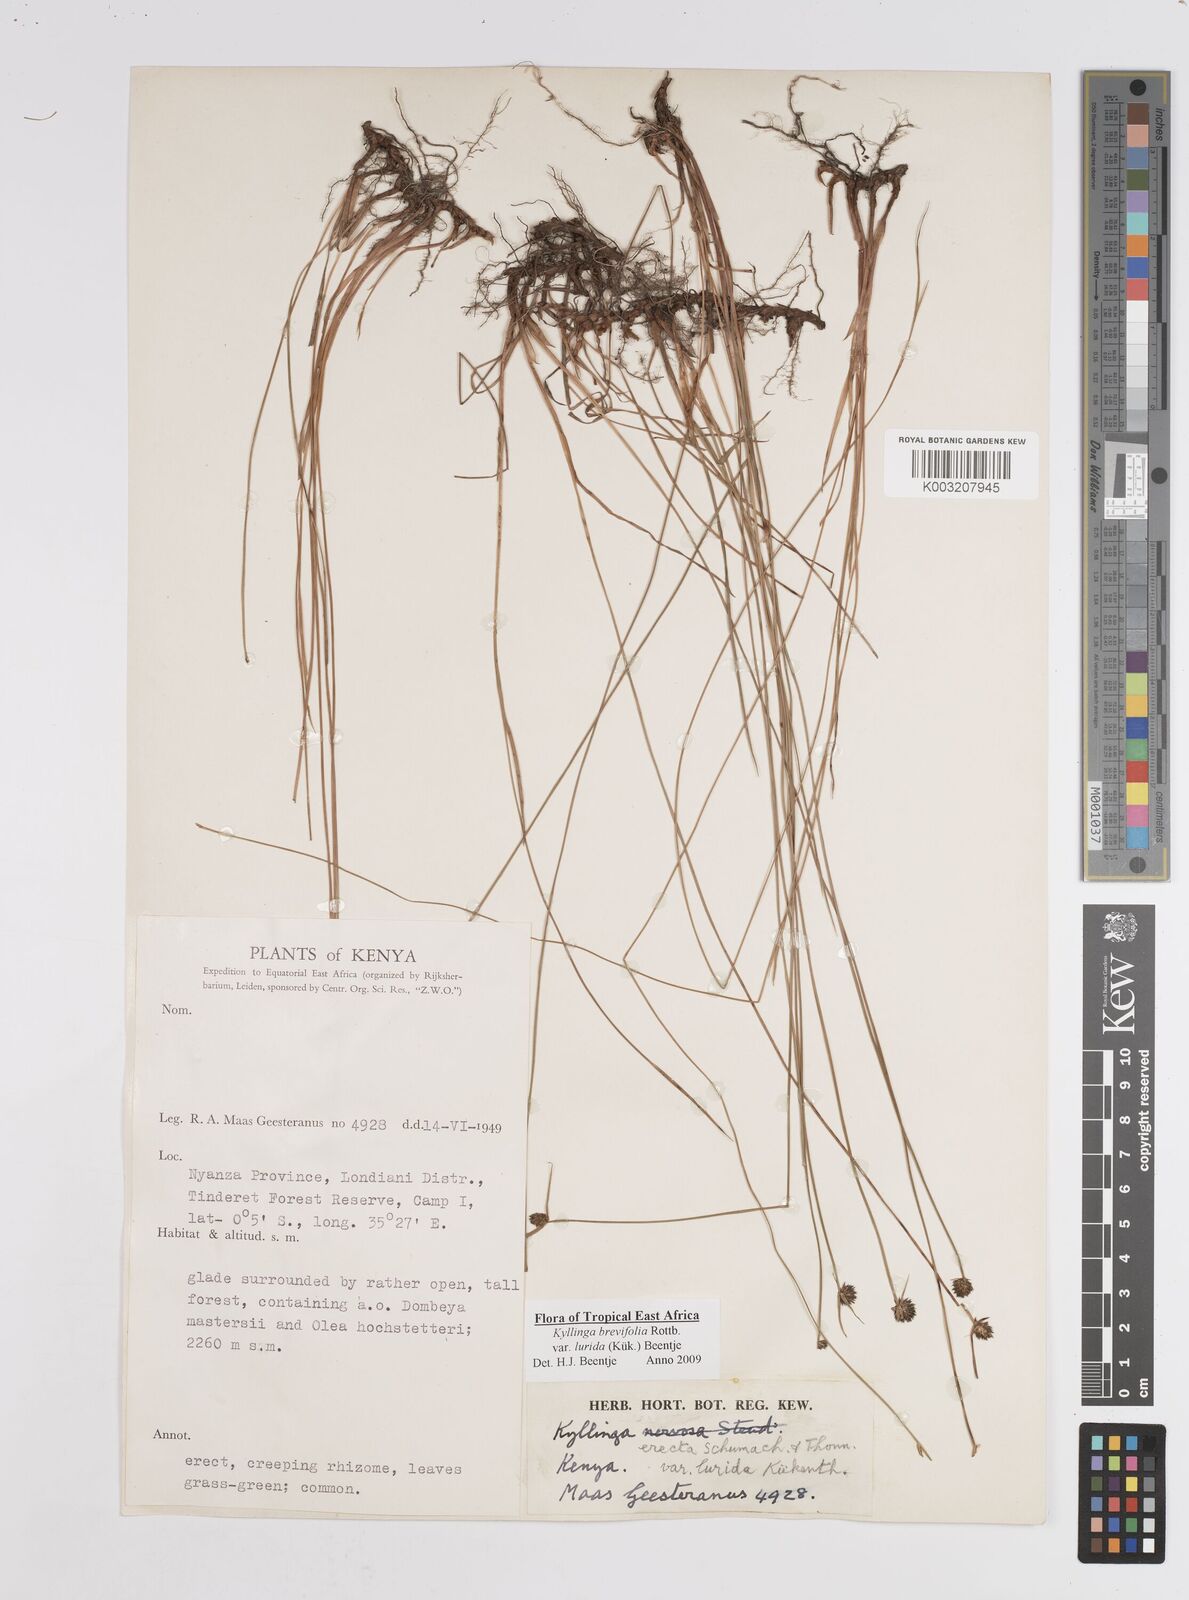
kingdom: Plantae
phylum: Tracheophyta
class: Liliopsida
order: Poales
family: Cyperaceae
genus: Cyperus
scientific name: Cyperus erectus
